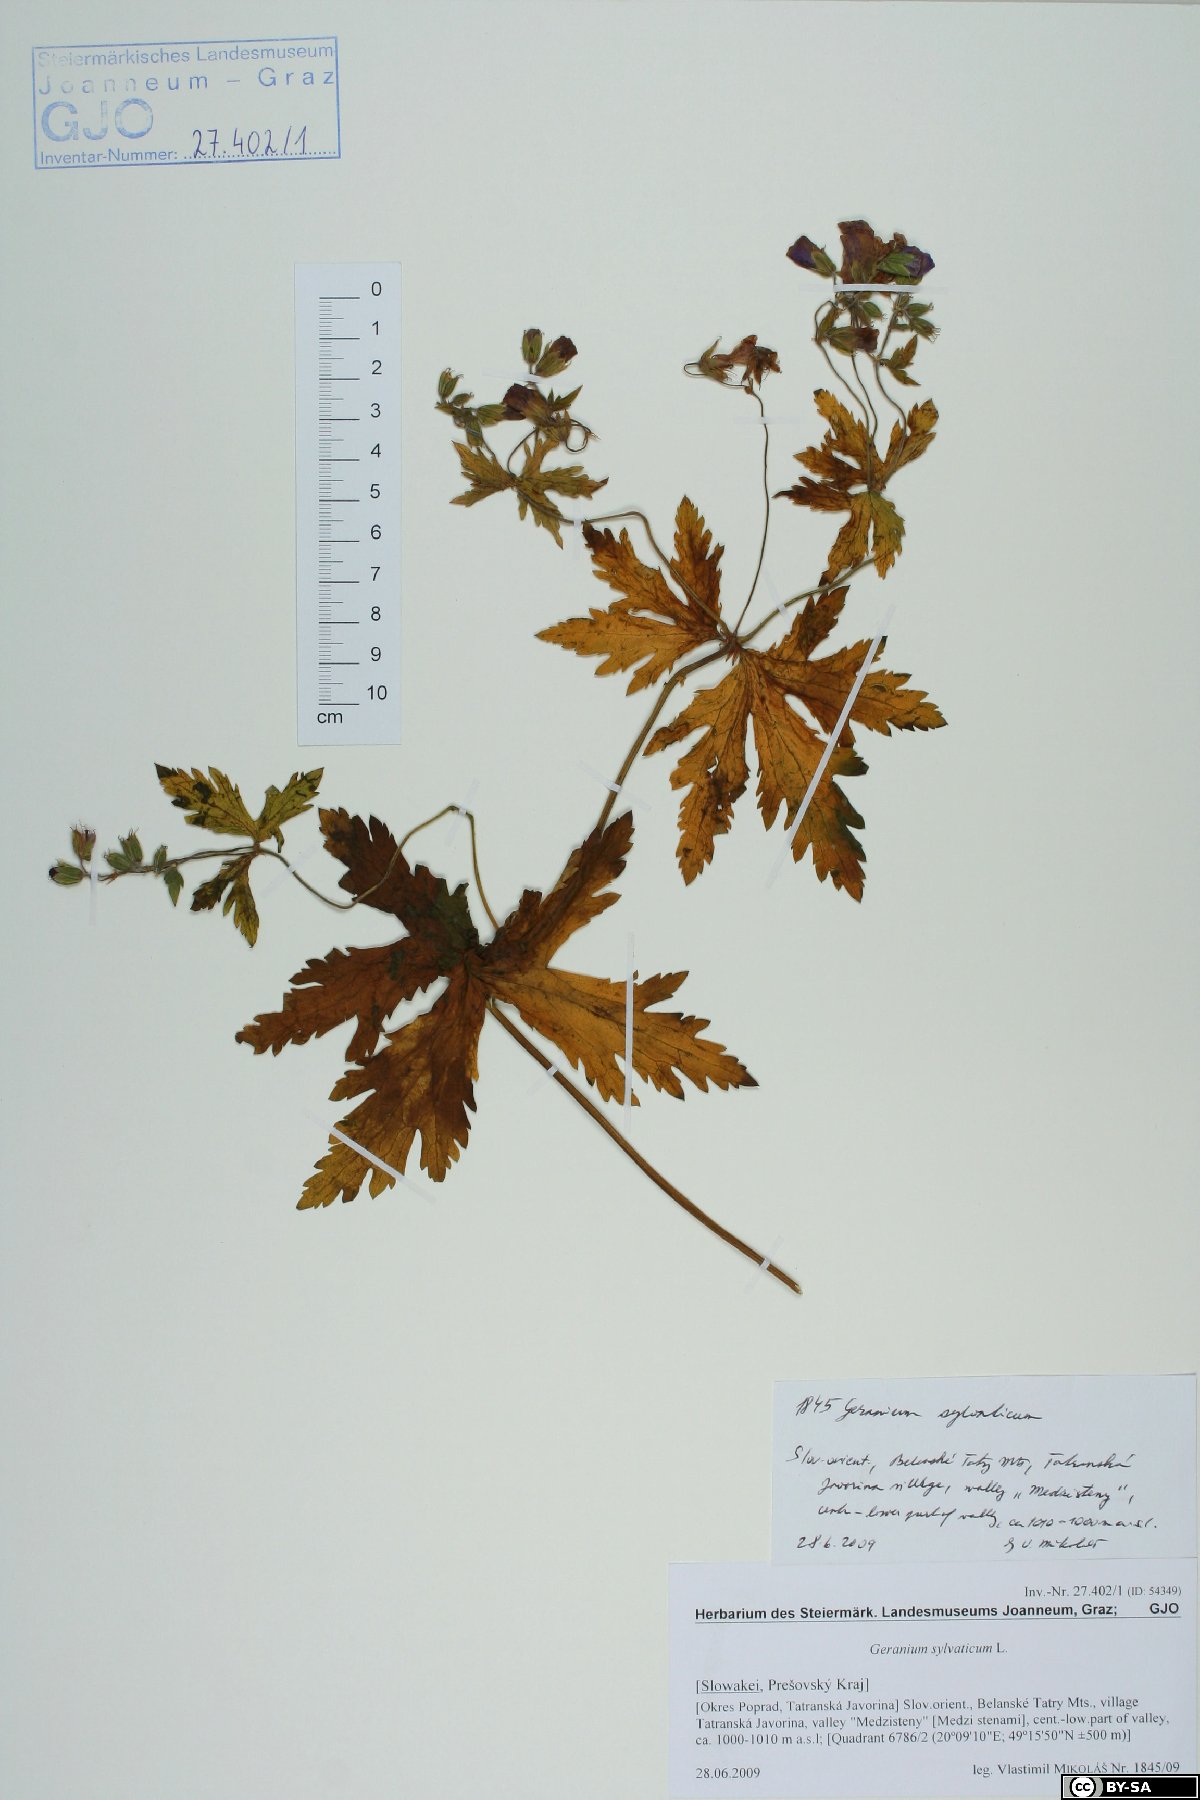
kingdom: Plantae
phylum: Tracheophyta
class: Magnoliopsida
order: Geraniales
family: Geraniaceae
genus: Geranium
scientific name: Geranium sylvaticum
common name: Wood crane's-bill
